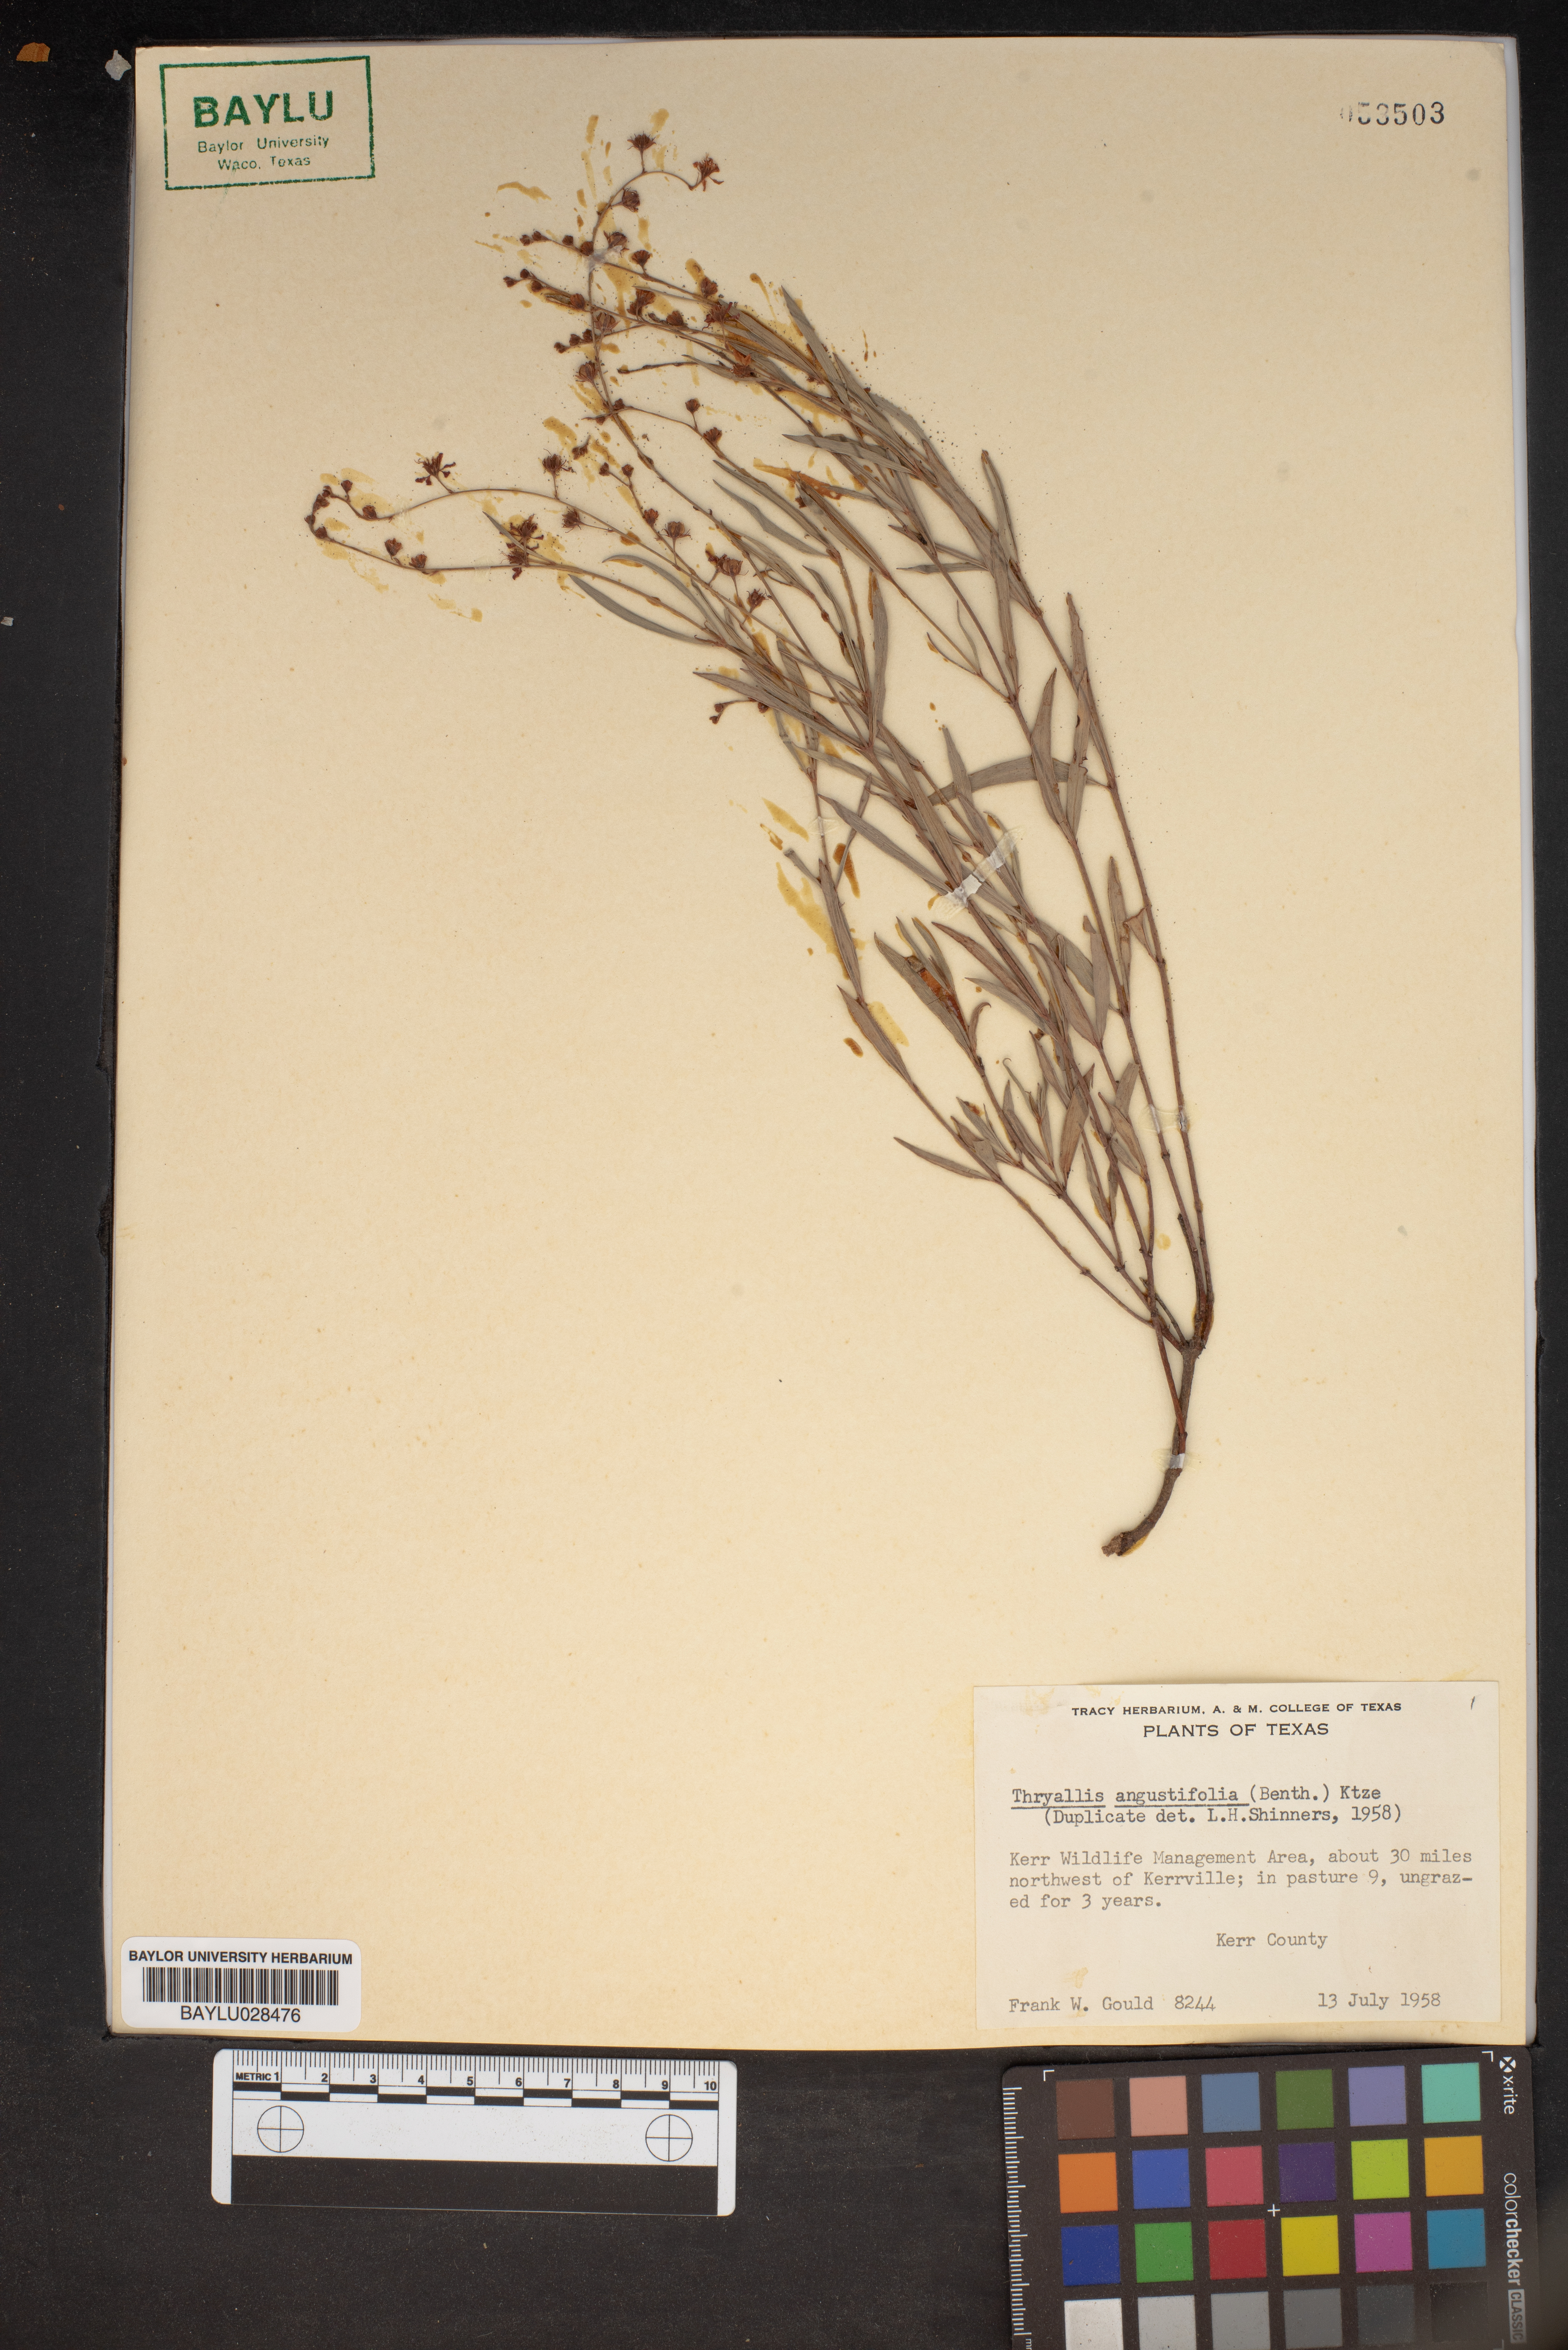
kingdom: Plantae
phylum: Tracheophyta
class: Magnoliopsida
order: Malpighiales
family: Malpighiaceae
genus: Galphimia
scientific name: Galphimia angustifolia
